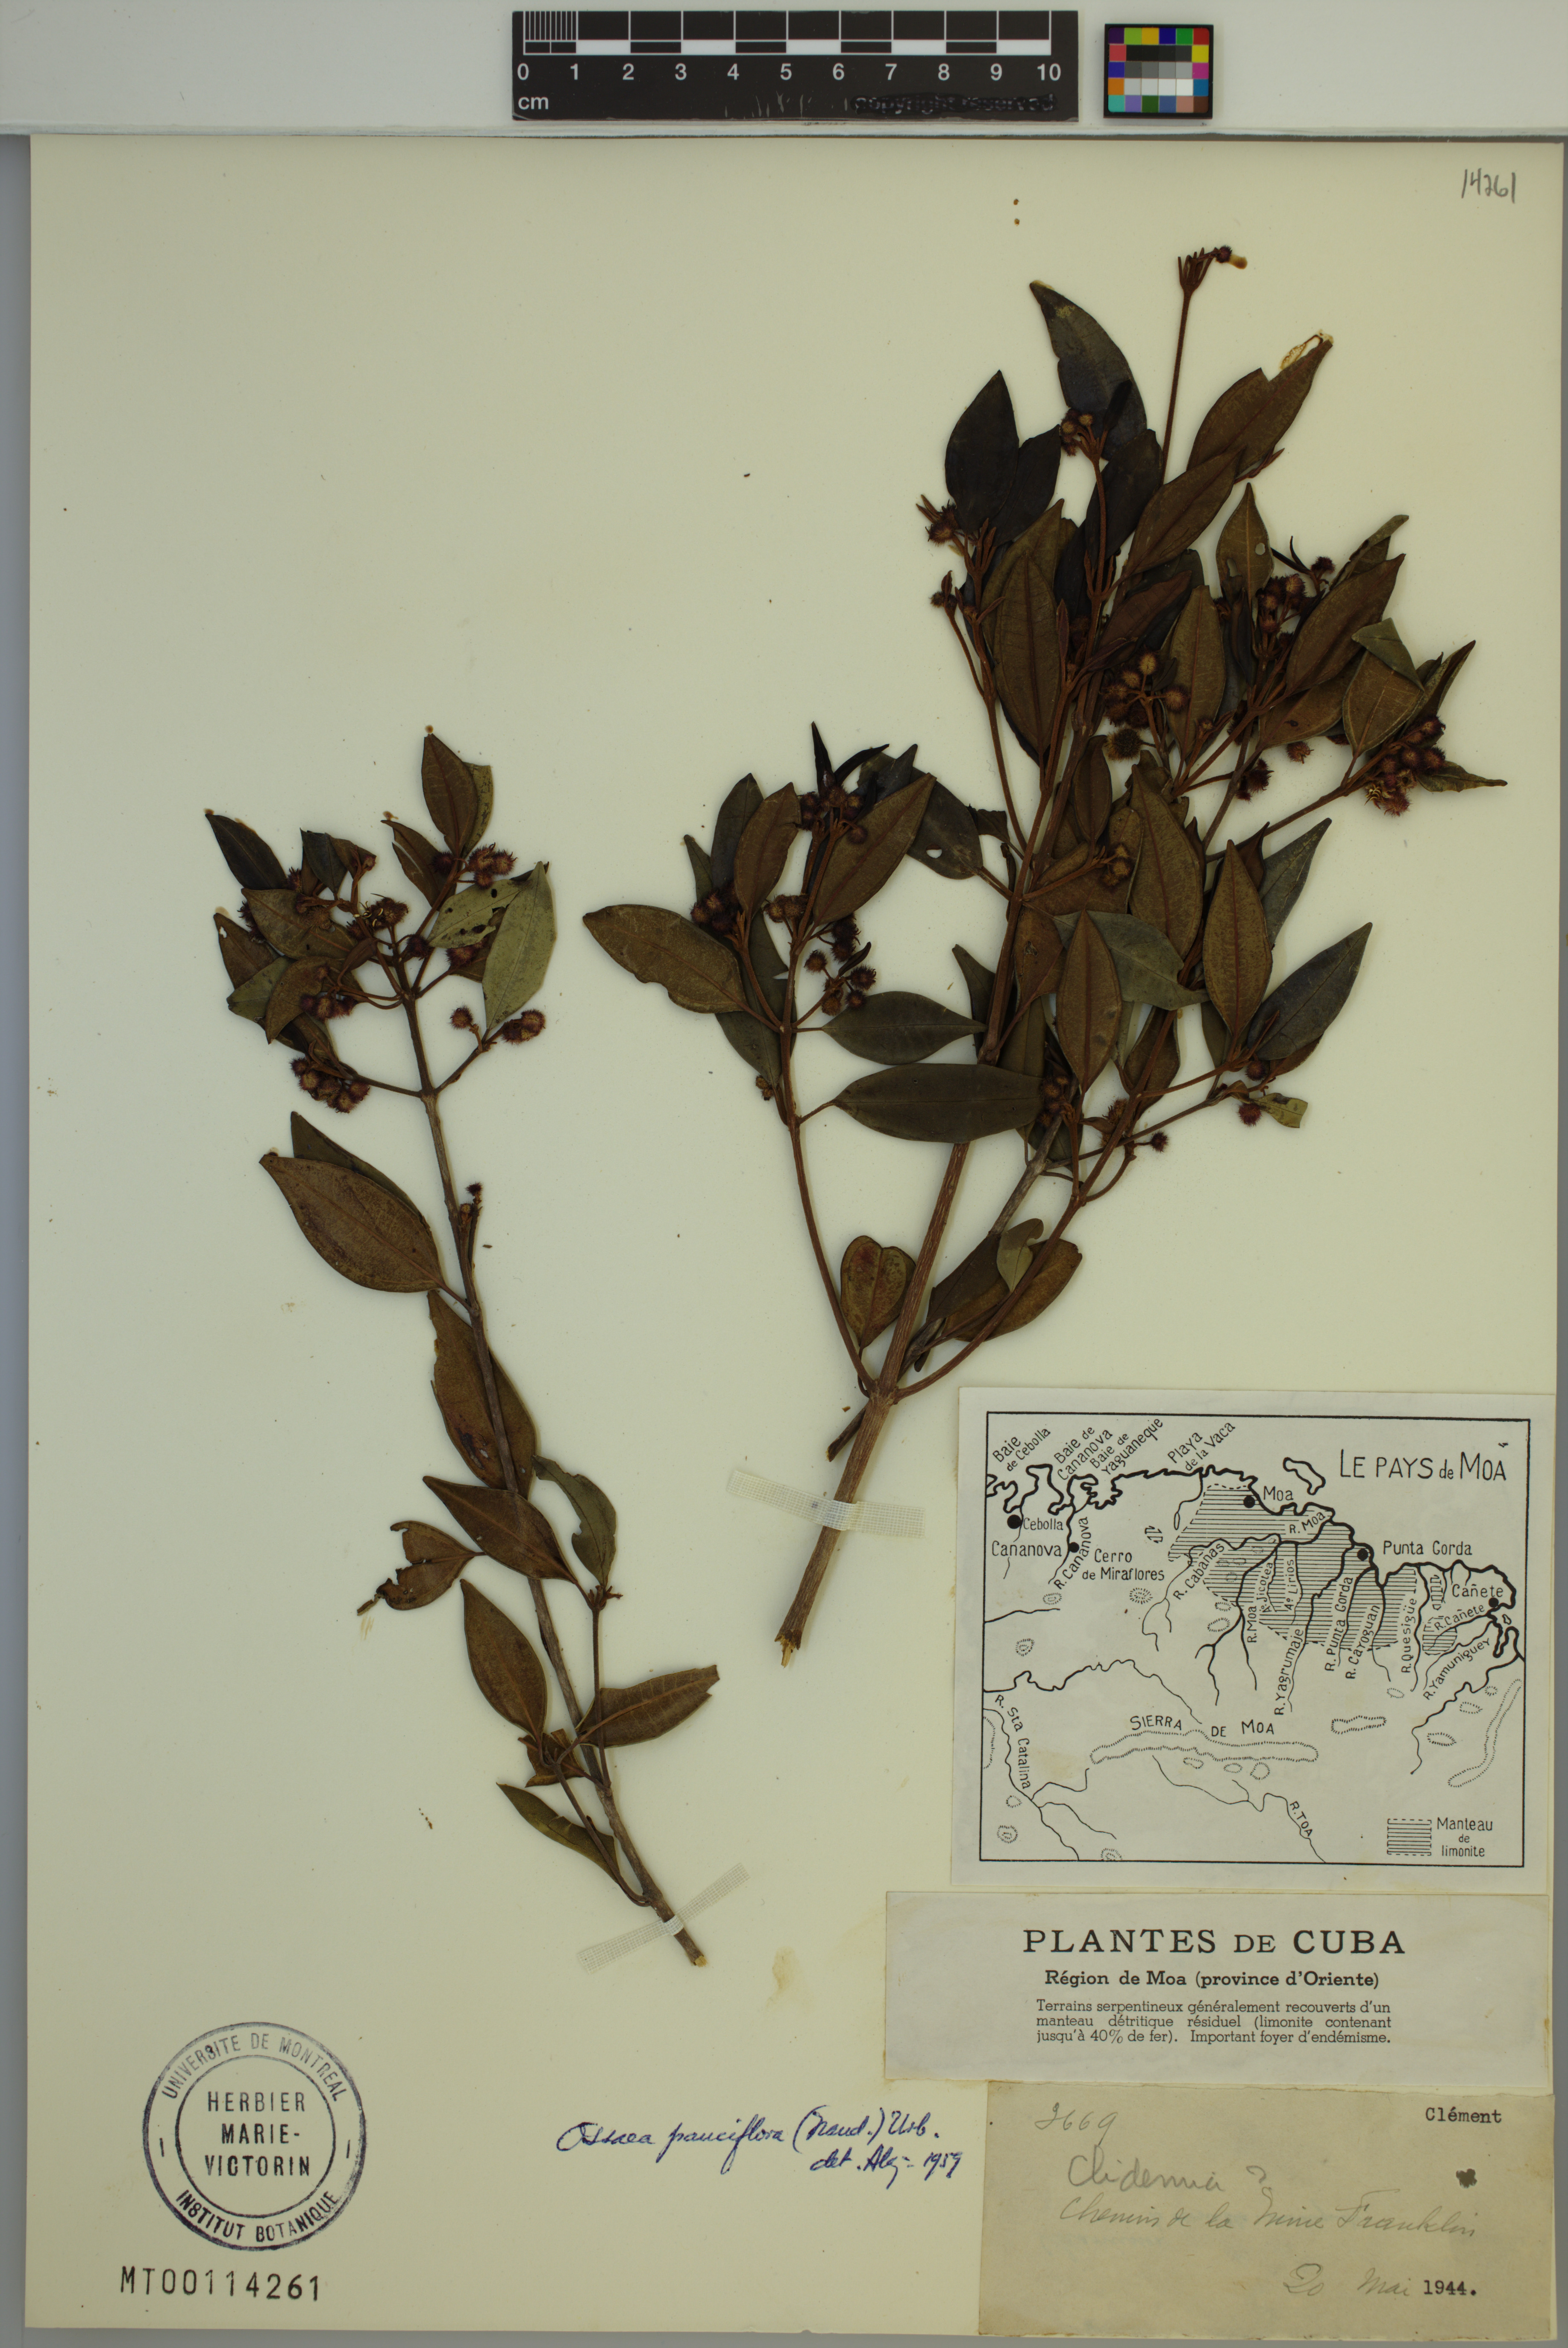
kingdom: Plantae
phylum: Tracheophyta
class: Magnoliopsida
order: Myrtales
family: Melastomataceae
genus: Miconia
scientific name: Miconia echinata
